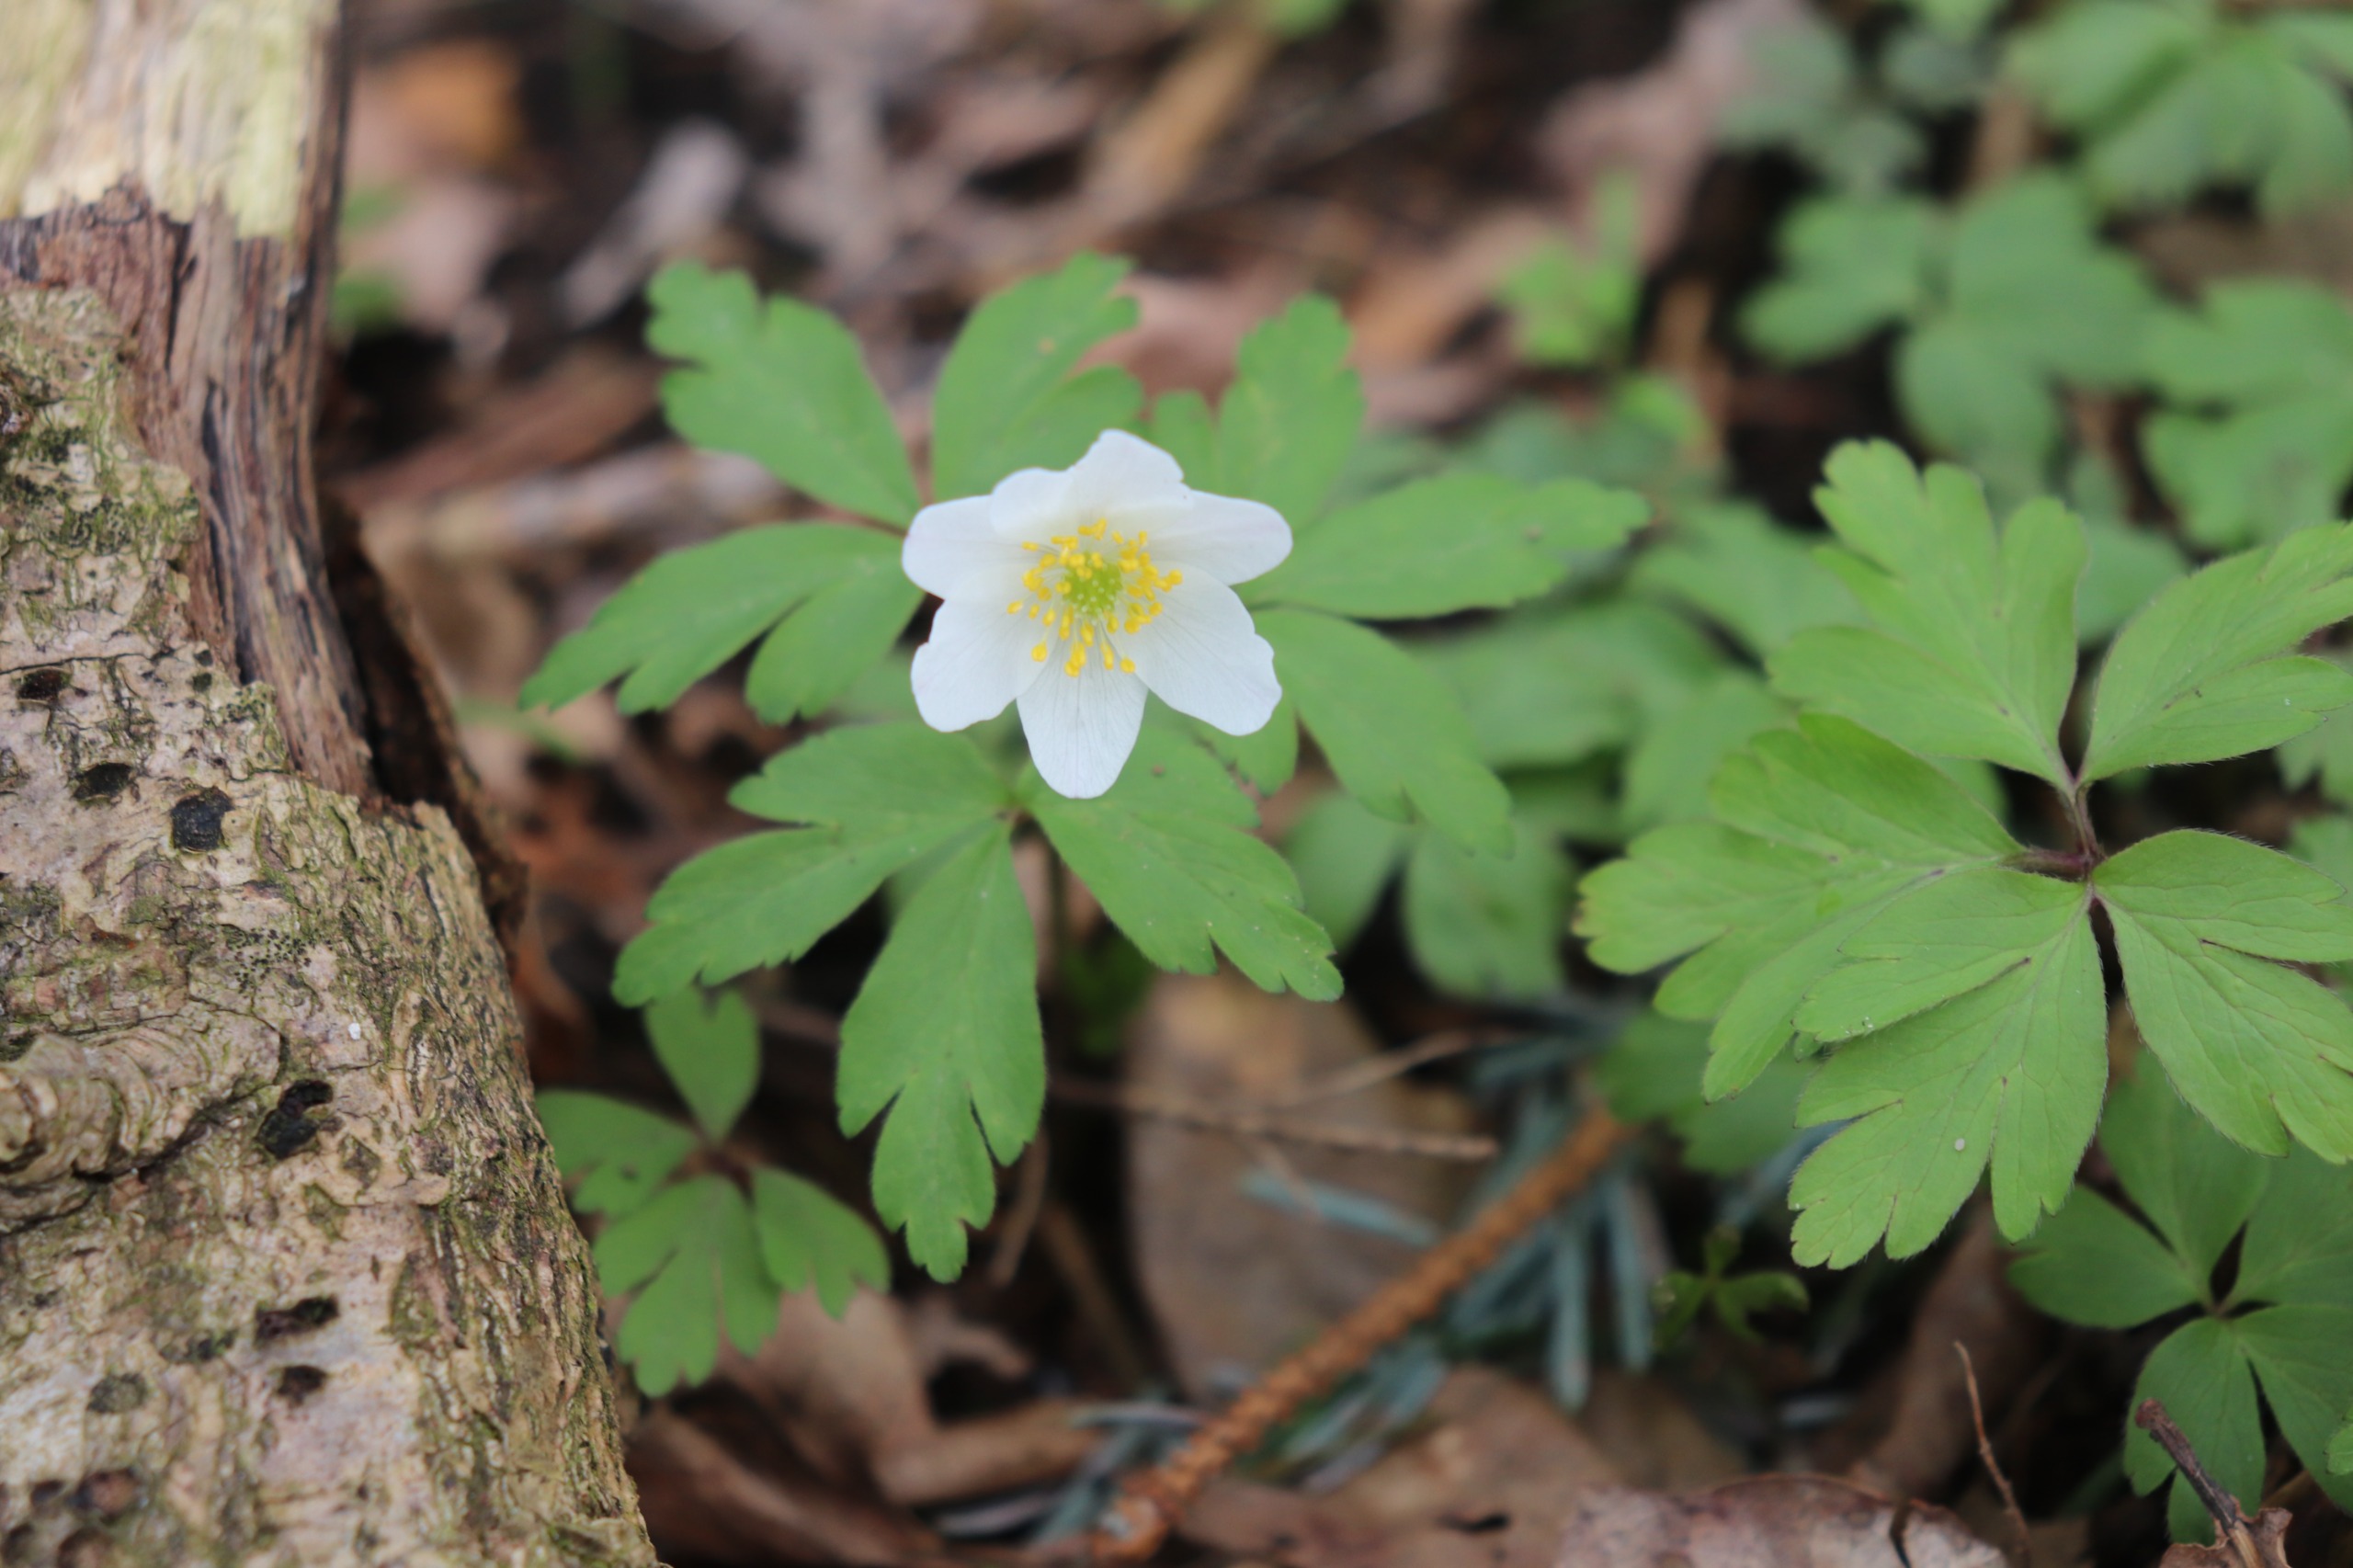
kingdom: Plantae
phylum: Tracheophyta
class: Magnoliopsida
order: Ranunculales
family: Ranunculaceae
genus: Anemone
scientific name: Anemone nemorosa
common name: Hvid anemone
